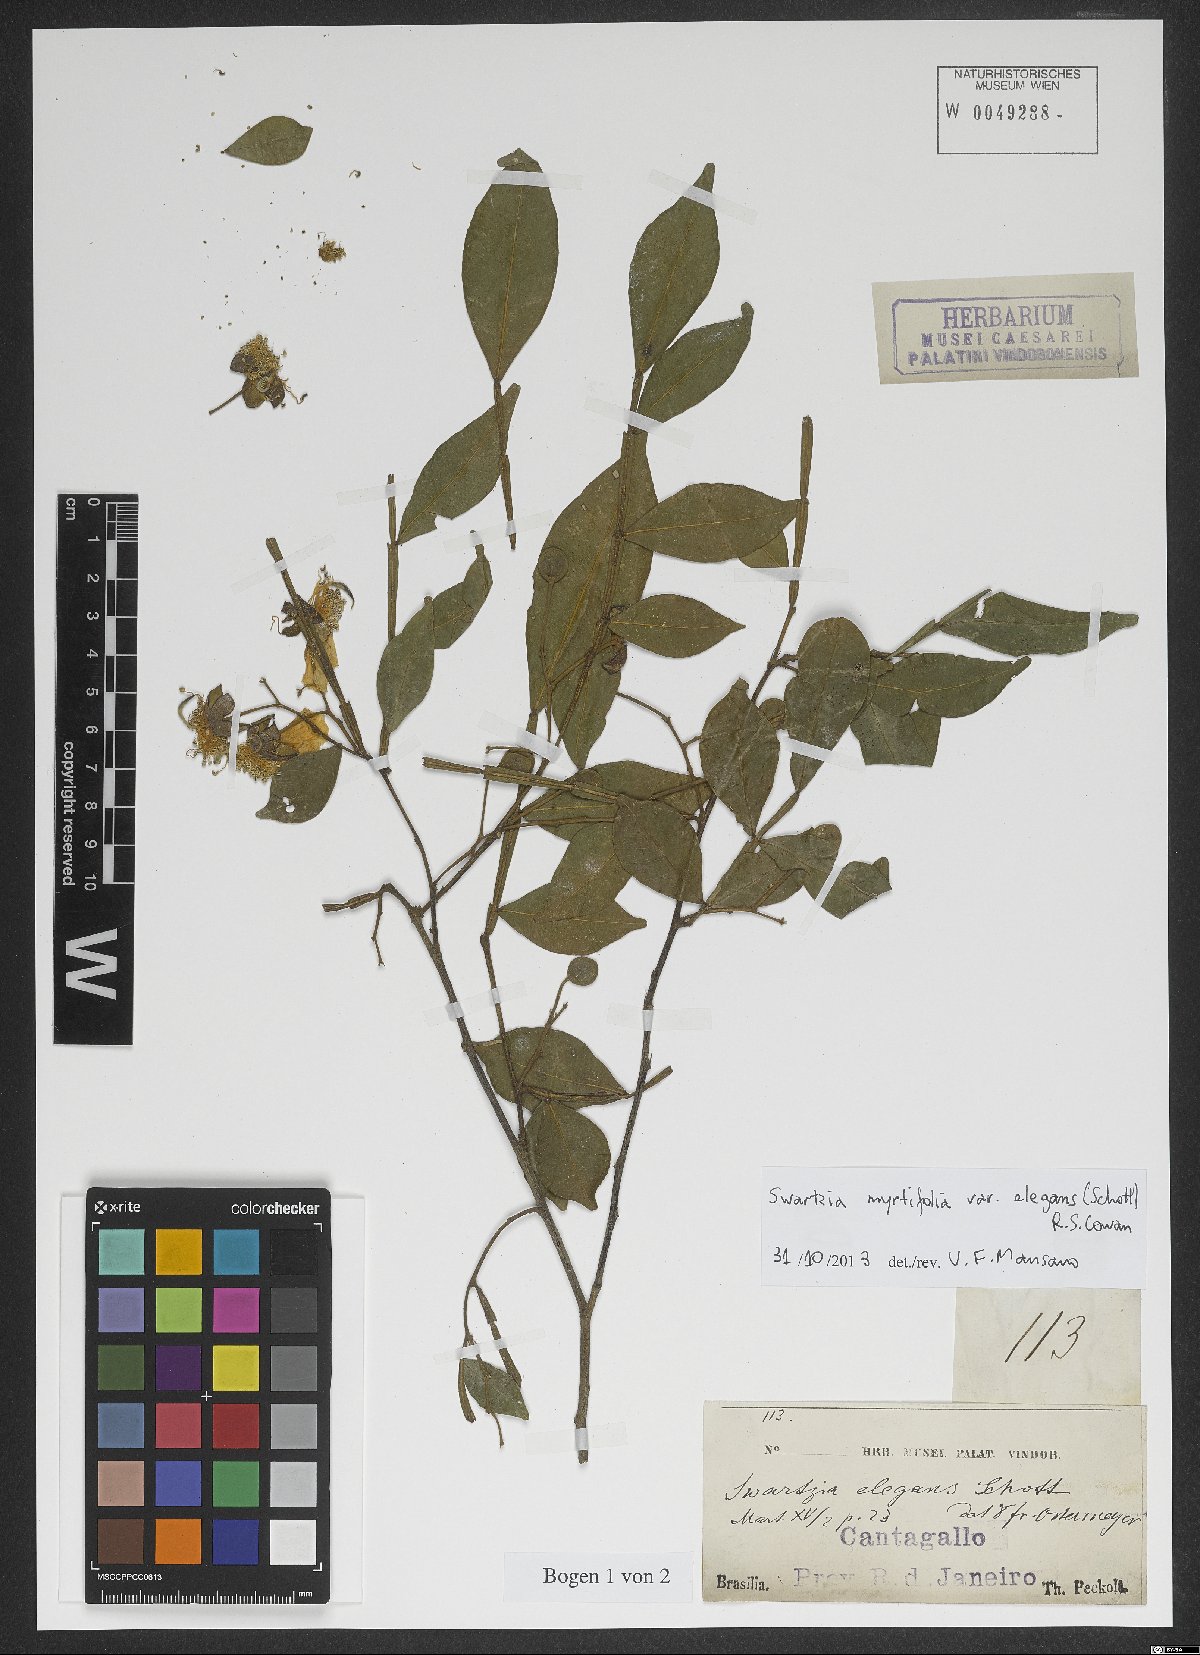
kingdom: Plantae
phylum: Tracheophyta
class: Magnoliopsida
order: Fabales
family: Fabaceae
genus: Swartzia
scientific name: Swartzia myrtifolia
